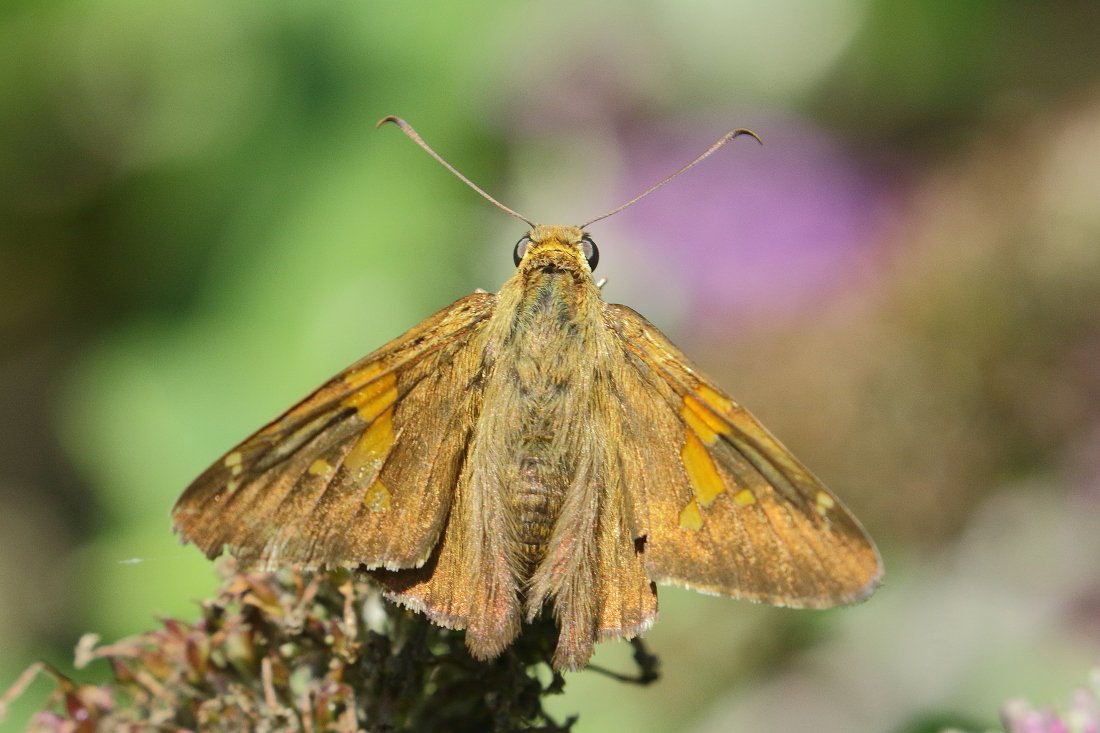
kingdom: Animalia
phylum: Arthropoda
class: Insecta
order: Lepidoptera
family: Hesperiidae
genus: Epargyreus
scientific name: Epargyreus clarus
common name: Silver-spotted Skipper
